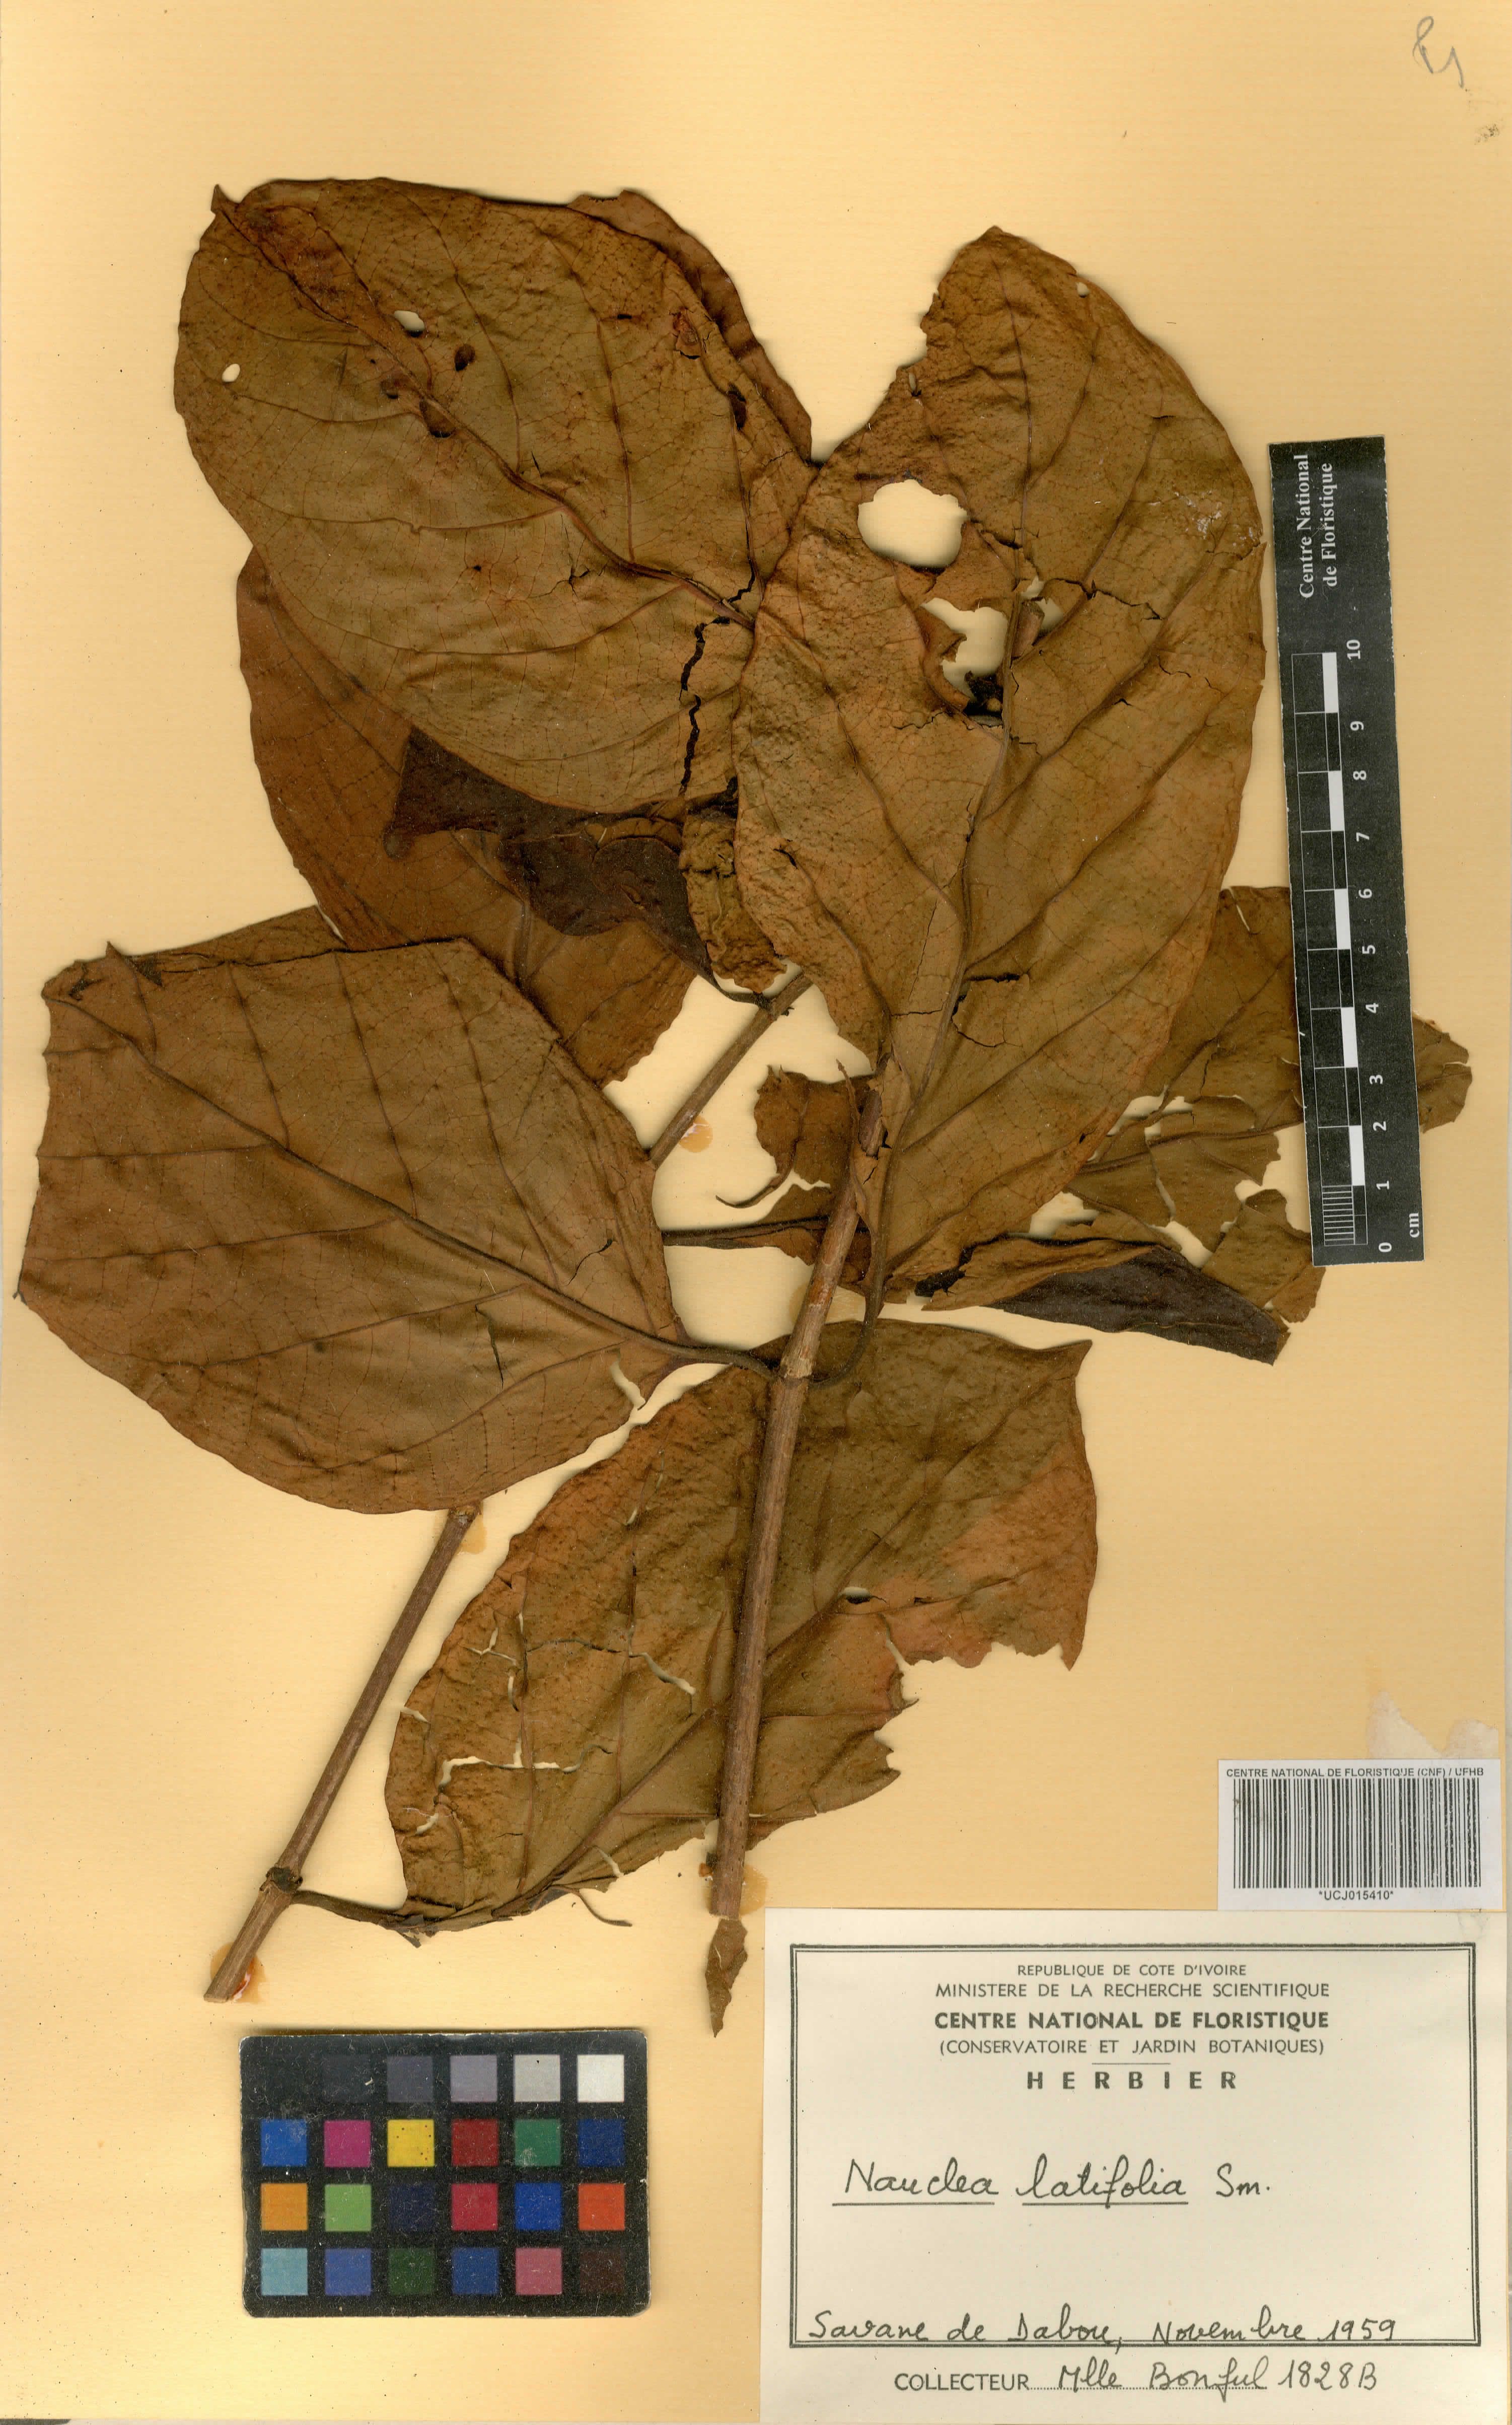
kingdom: Plantae
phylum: Tracheophyta
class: Magnoliopsida
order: Gentianales
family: Rubiaceae
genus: Nauclea
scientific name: Nauclea latifolia
